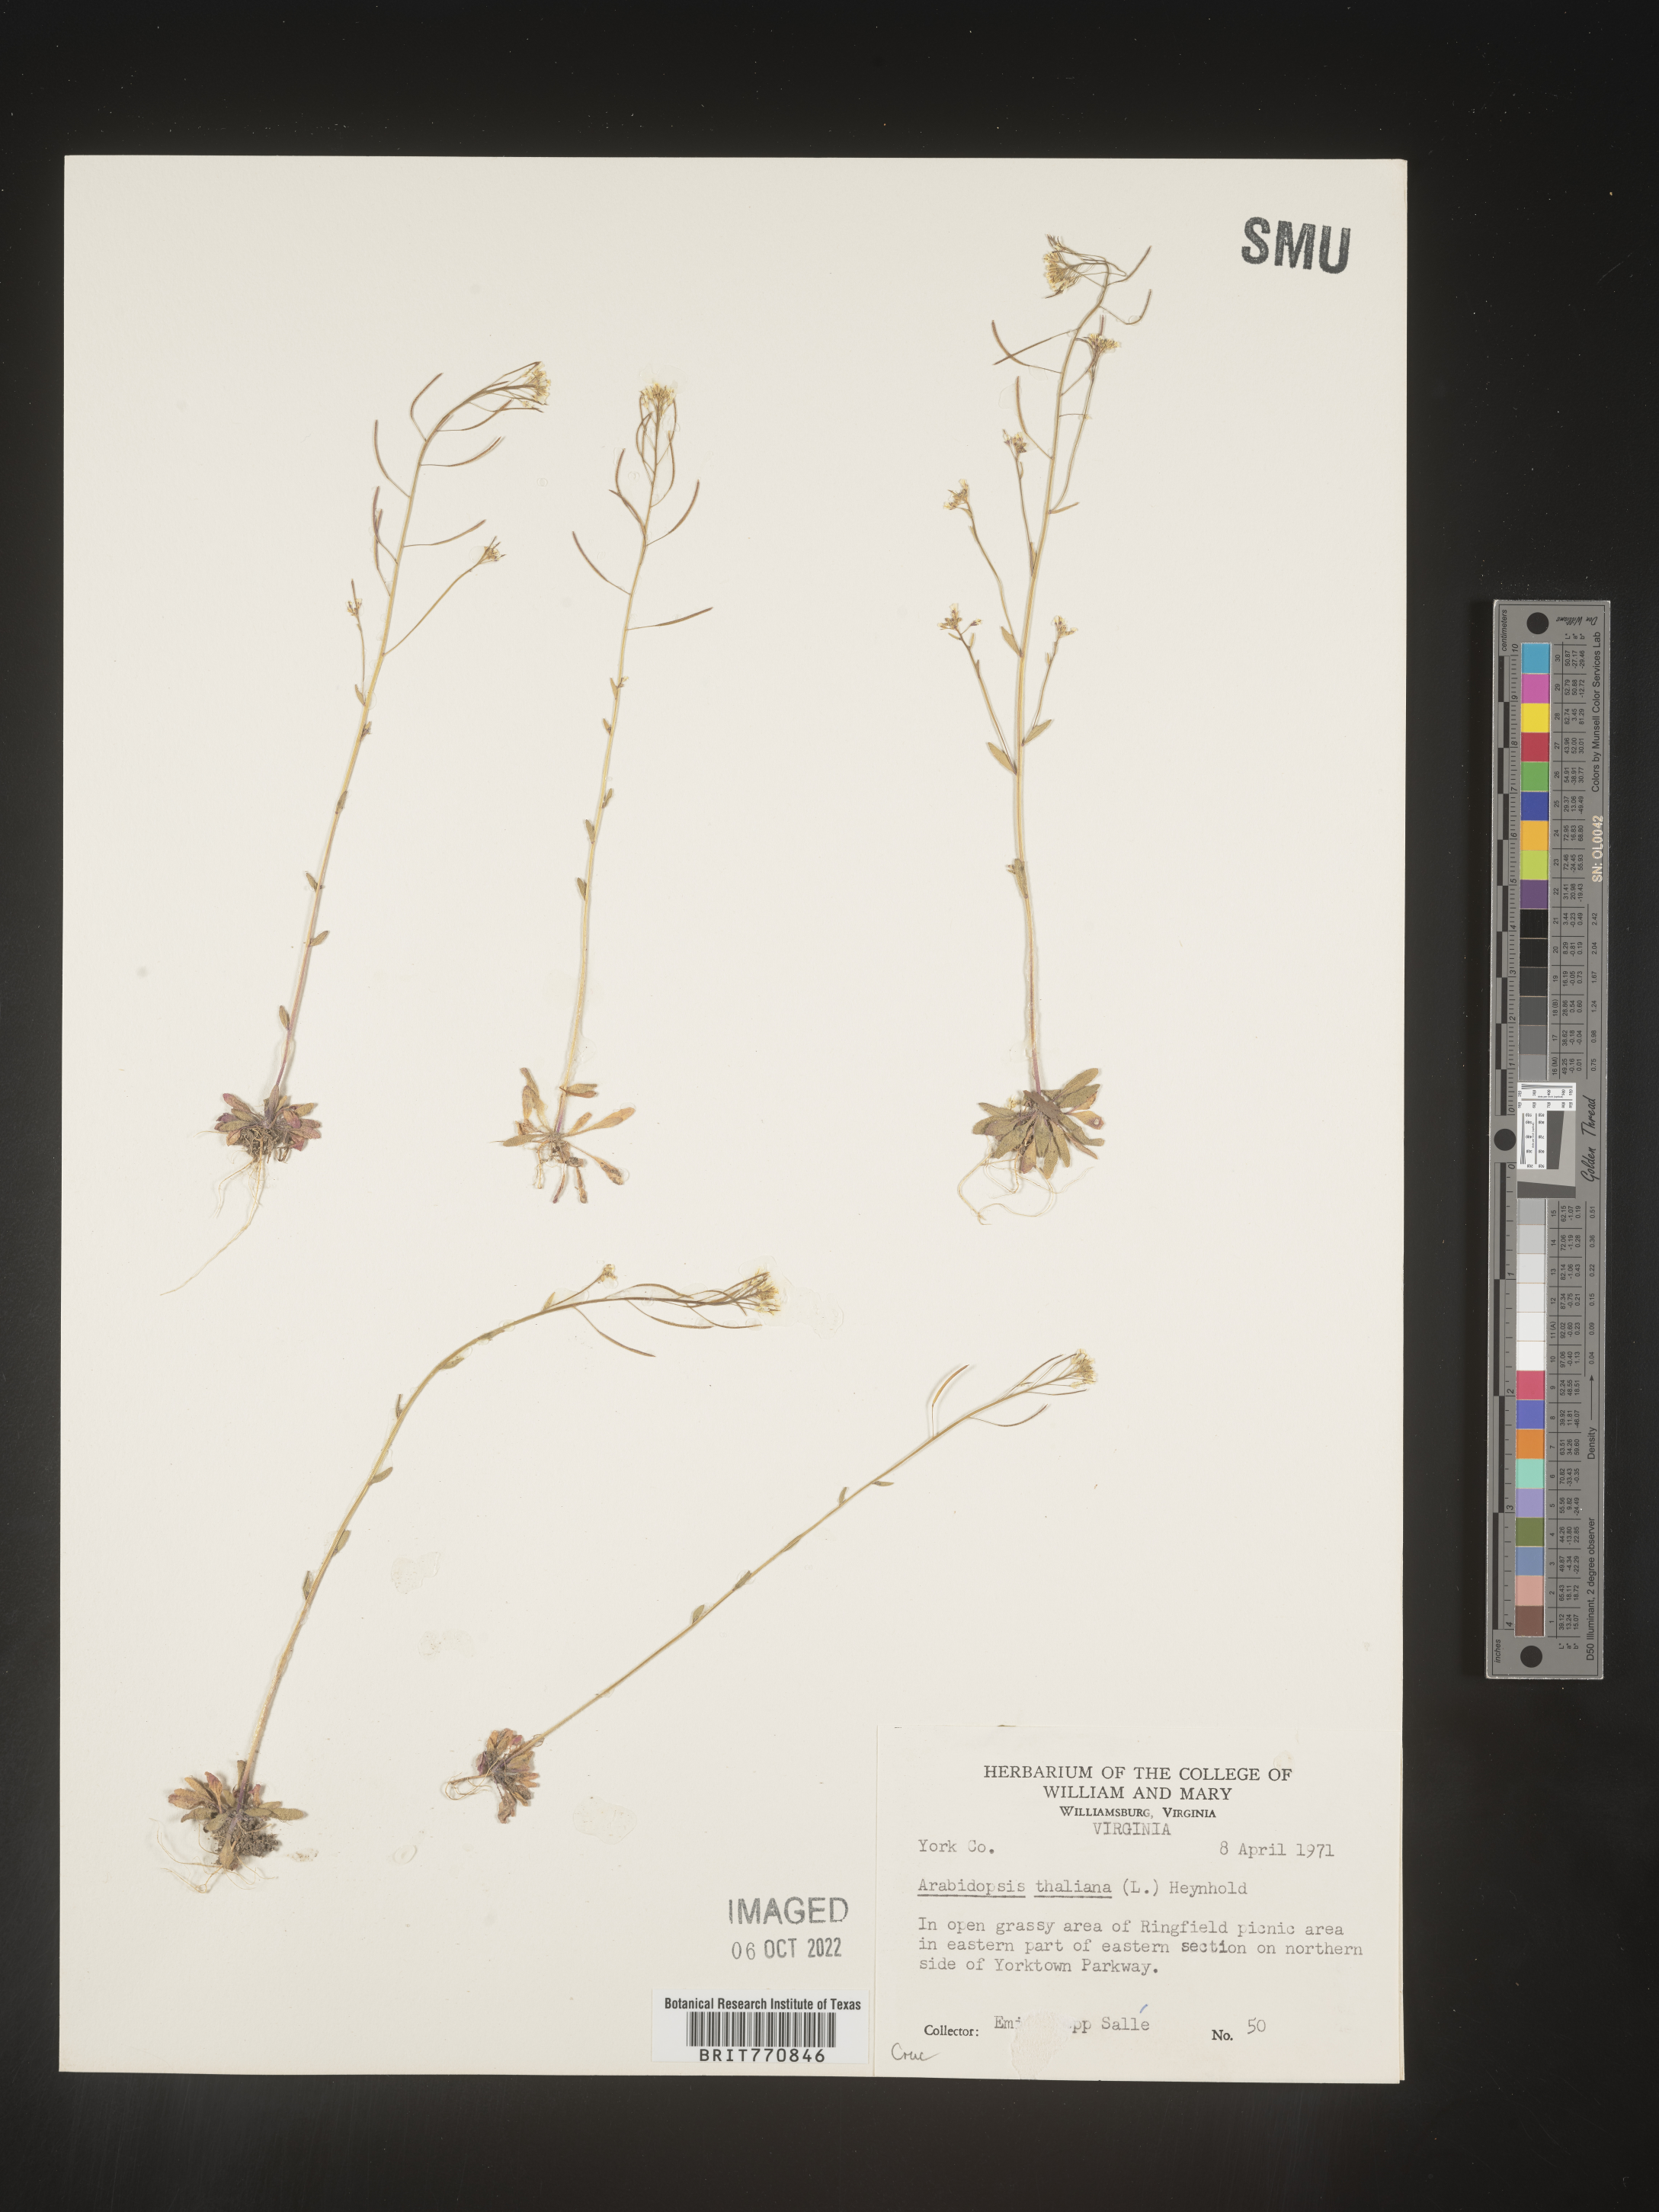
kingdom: Plantae
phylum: Tracheophyta
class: Magnoliopsida
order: Brassicales
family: Brassicaceae
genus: Arabidopsis
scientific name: Arabidopsis thaliana
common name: Thale cress
